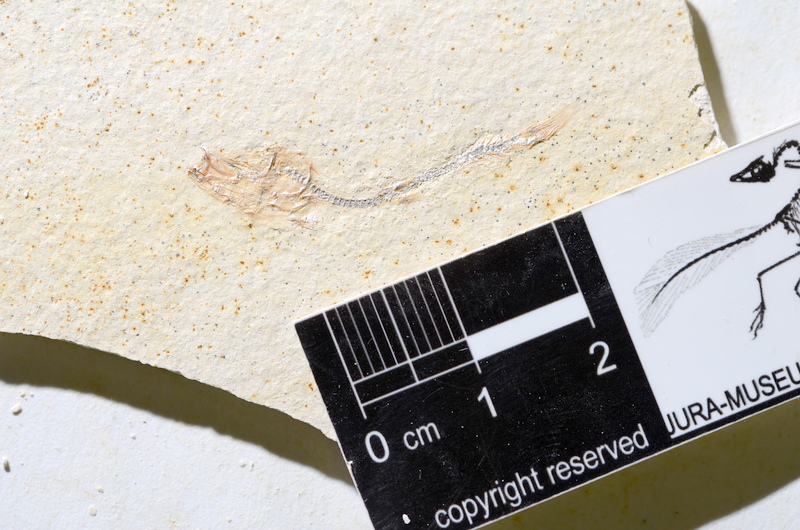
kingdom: Animalia
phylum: Chordata
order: Salmoniformes
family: Orthogonikleithridae
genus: Orthogonikleithrus
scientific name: Orthogonikleithrus hoelli
